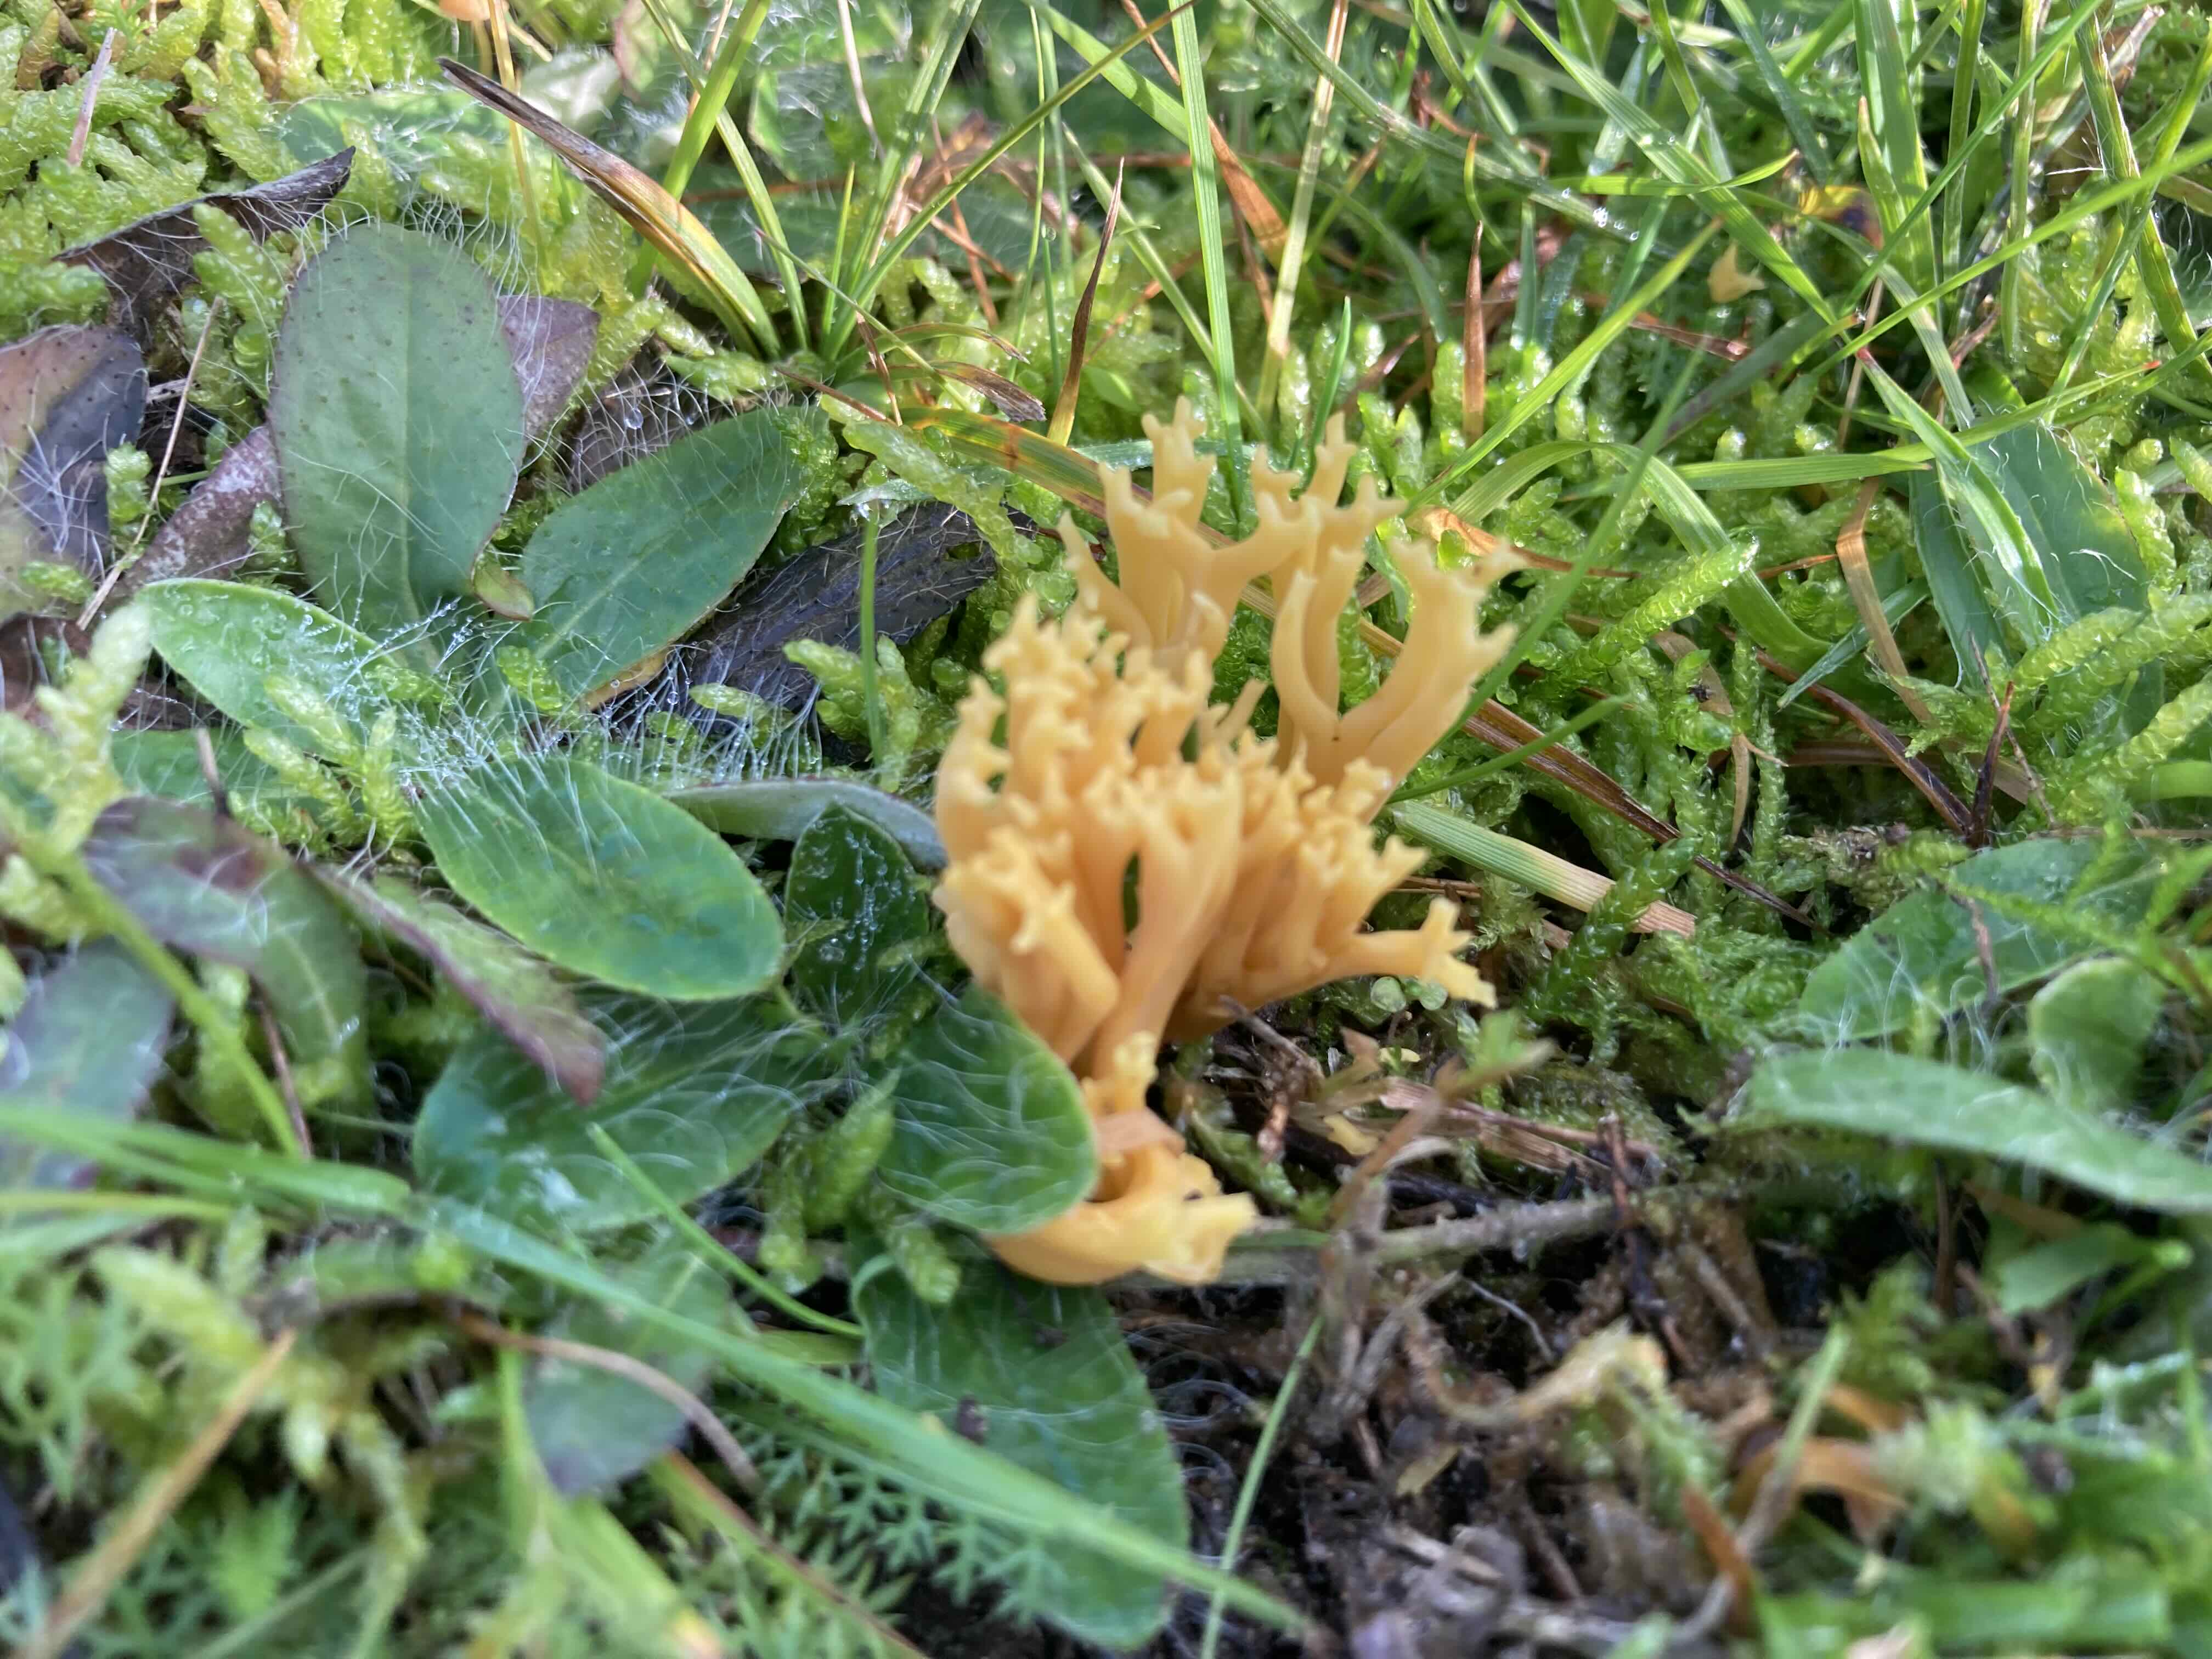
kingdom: Fungi
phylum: Basidiomycota
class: Agaricomycetes
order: Agaricales
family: Clavariaceae
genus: Clavulinopsis
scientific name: Clavulinopsis corniculata
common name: eng-køllesvamp
